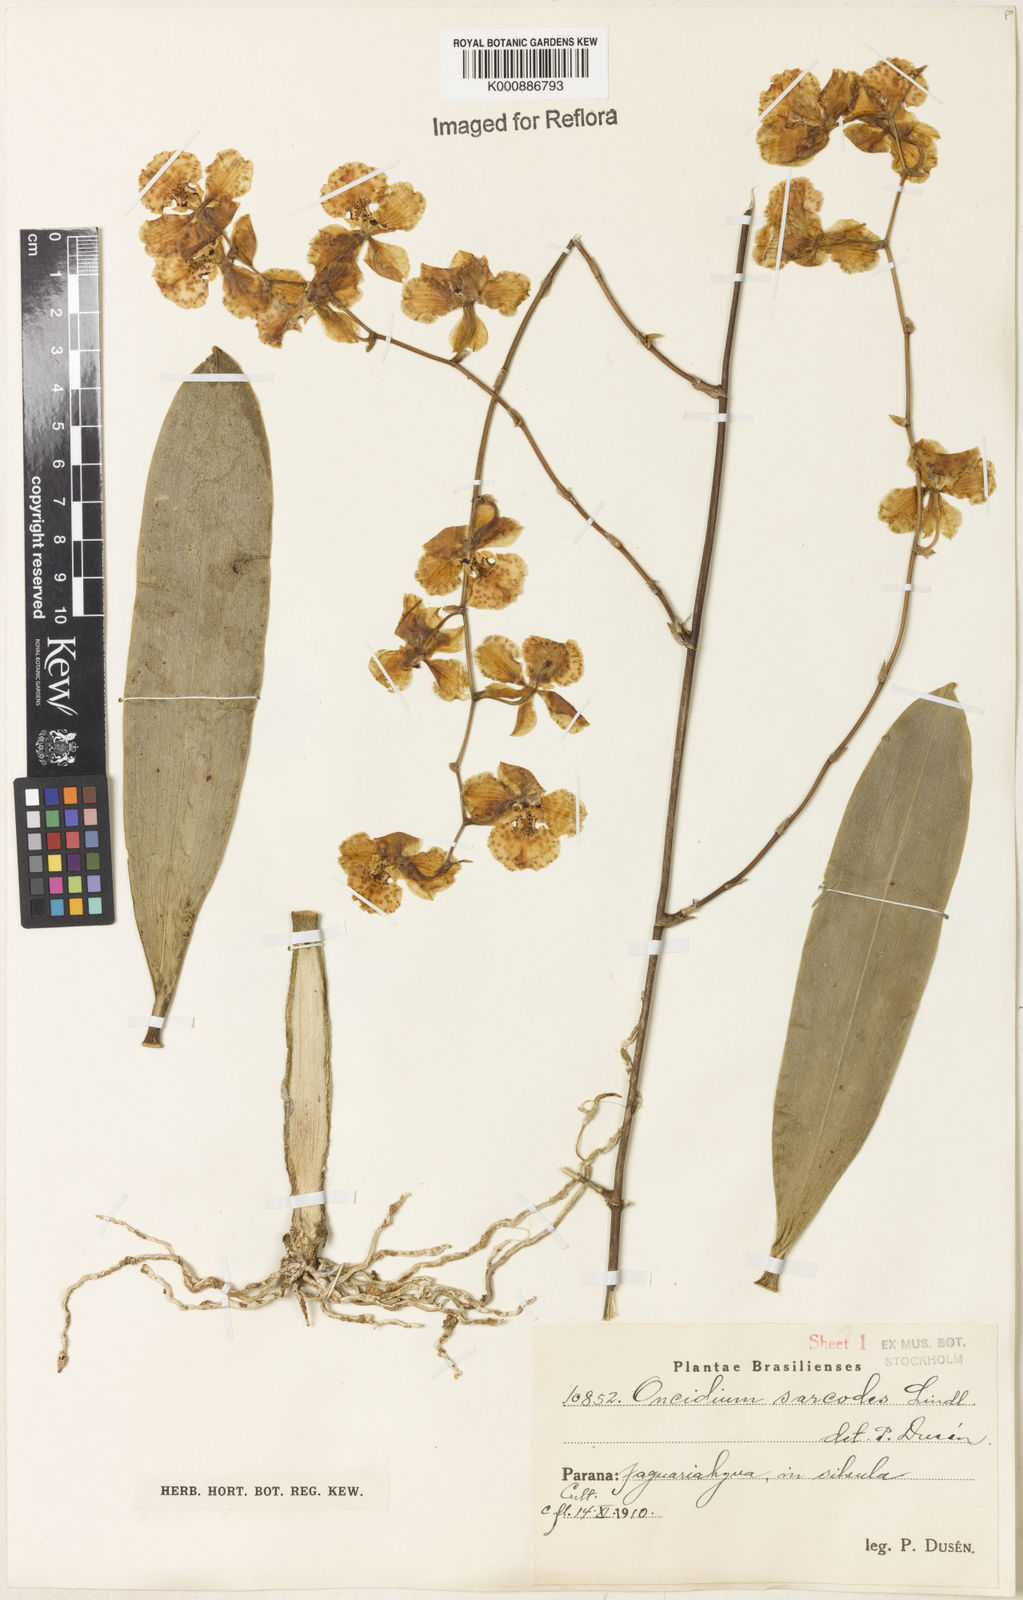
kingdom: Plantae
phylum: Tracheophyta
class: Liliopsida
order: Asparagales
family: Orchidaceae
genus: Gomesa
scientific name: Gomesa sarcodes
